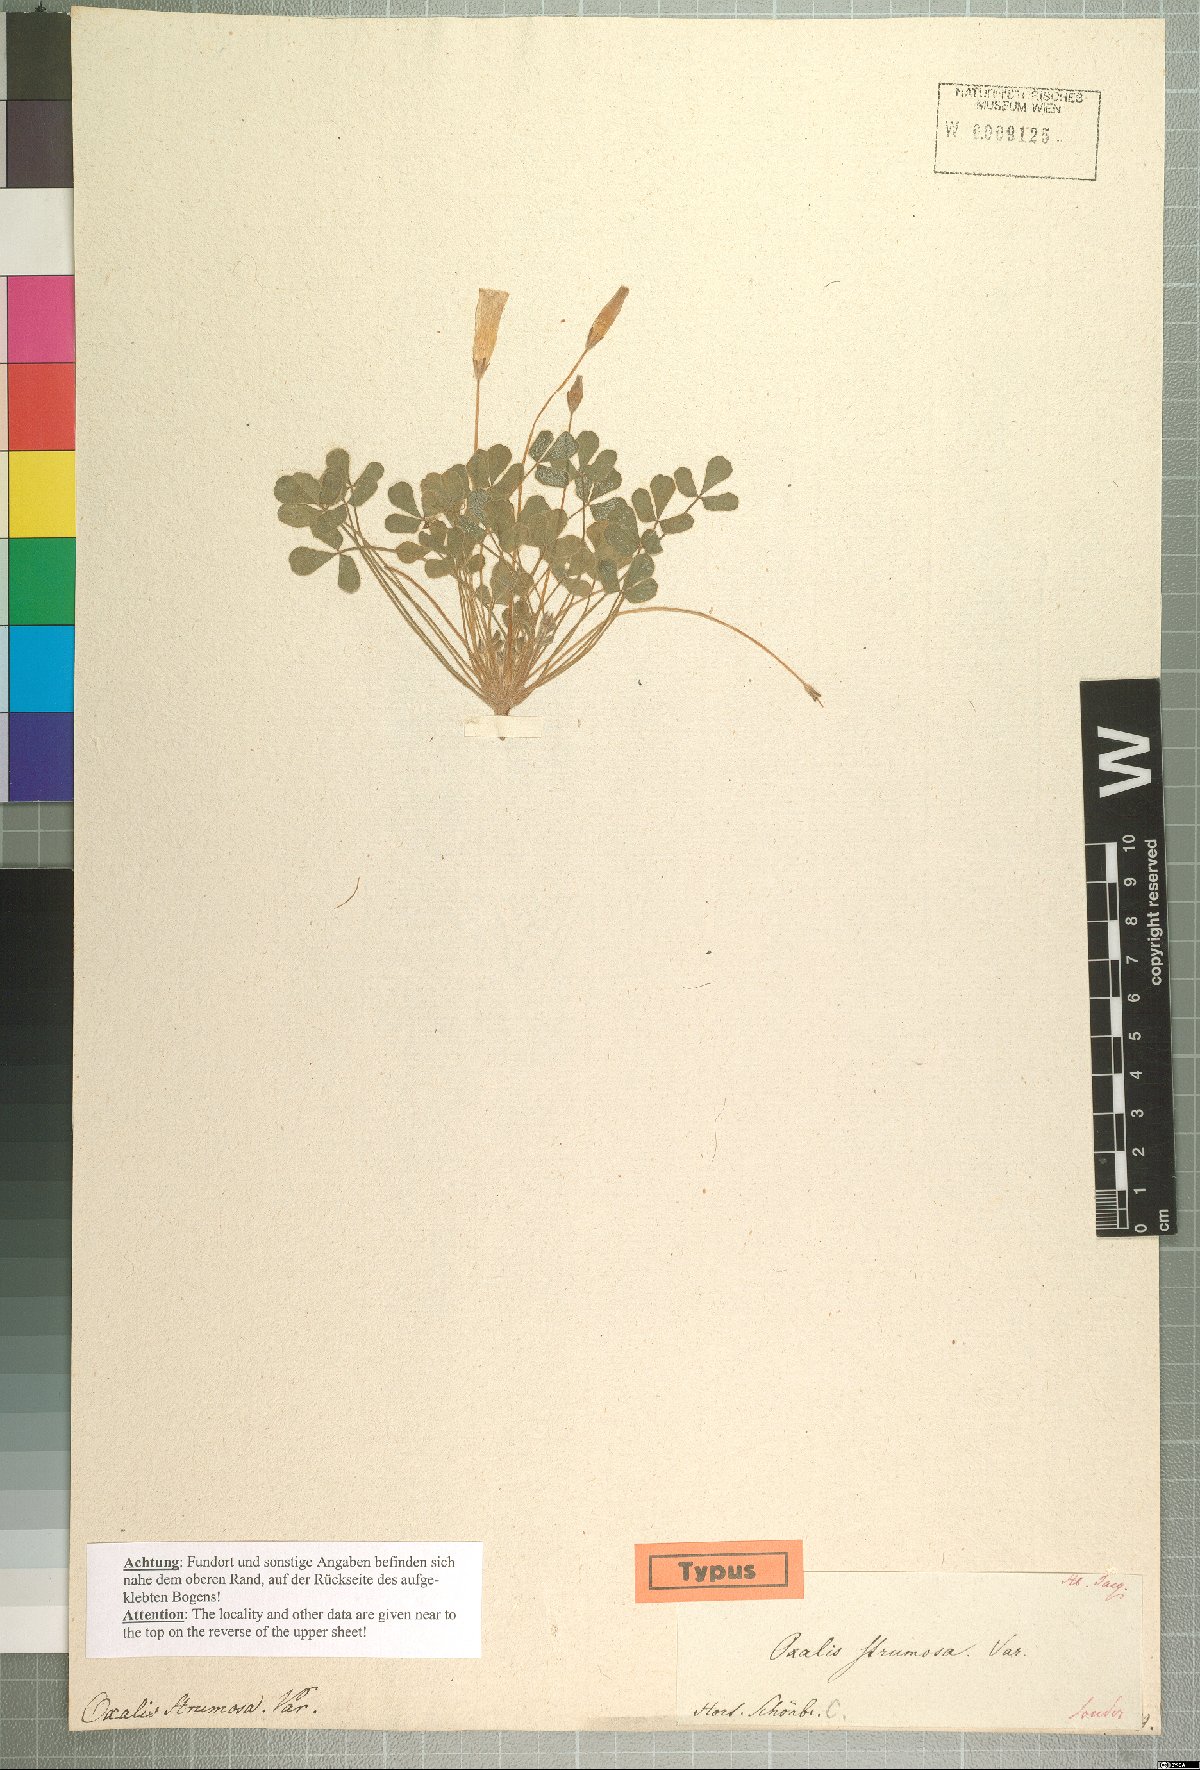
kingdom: Plantae
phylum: Tracheophyta
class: Magnoliopsida
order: Oxalidales
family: Oxalidaceae
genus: Oxalis
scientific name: Oxalis ambigua
